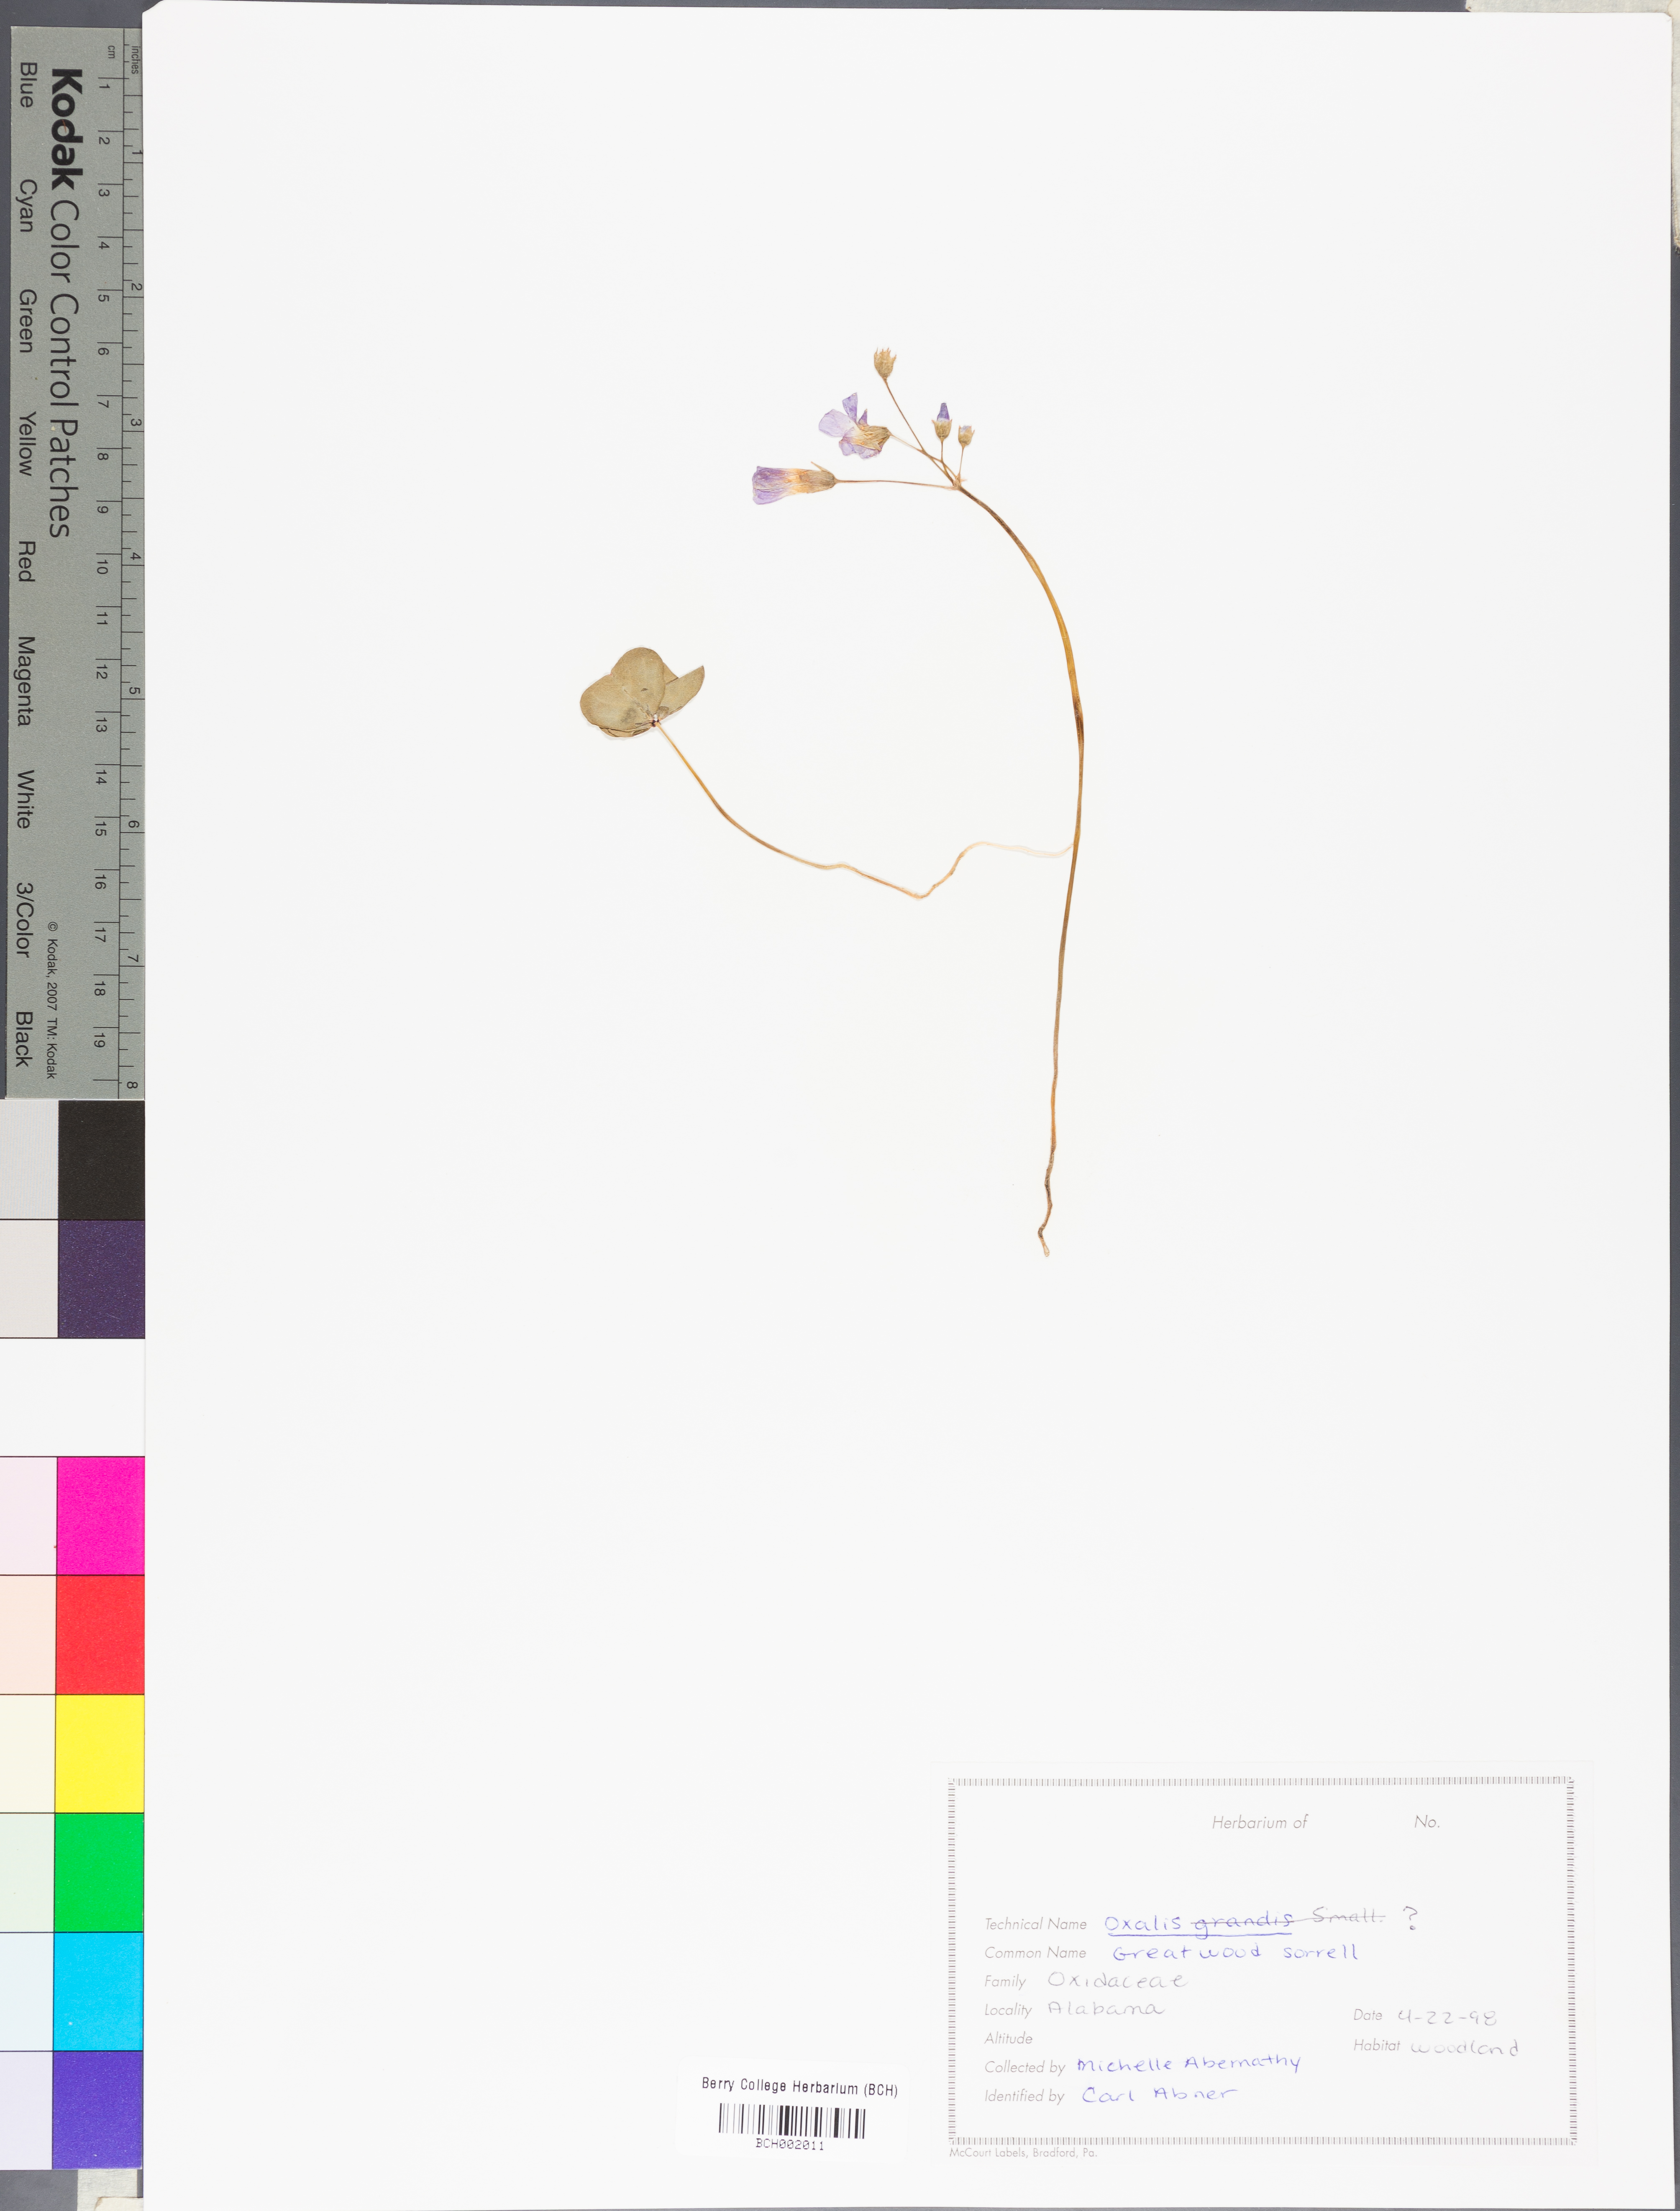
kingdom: Plantae
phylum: Tracheophyta
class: Magnoliopsida
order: Oxalidales
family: Oxalidaceae
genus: Oxalis
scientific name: Oxalis
